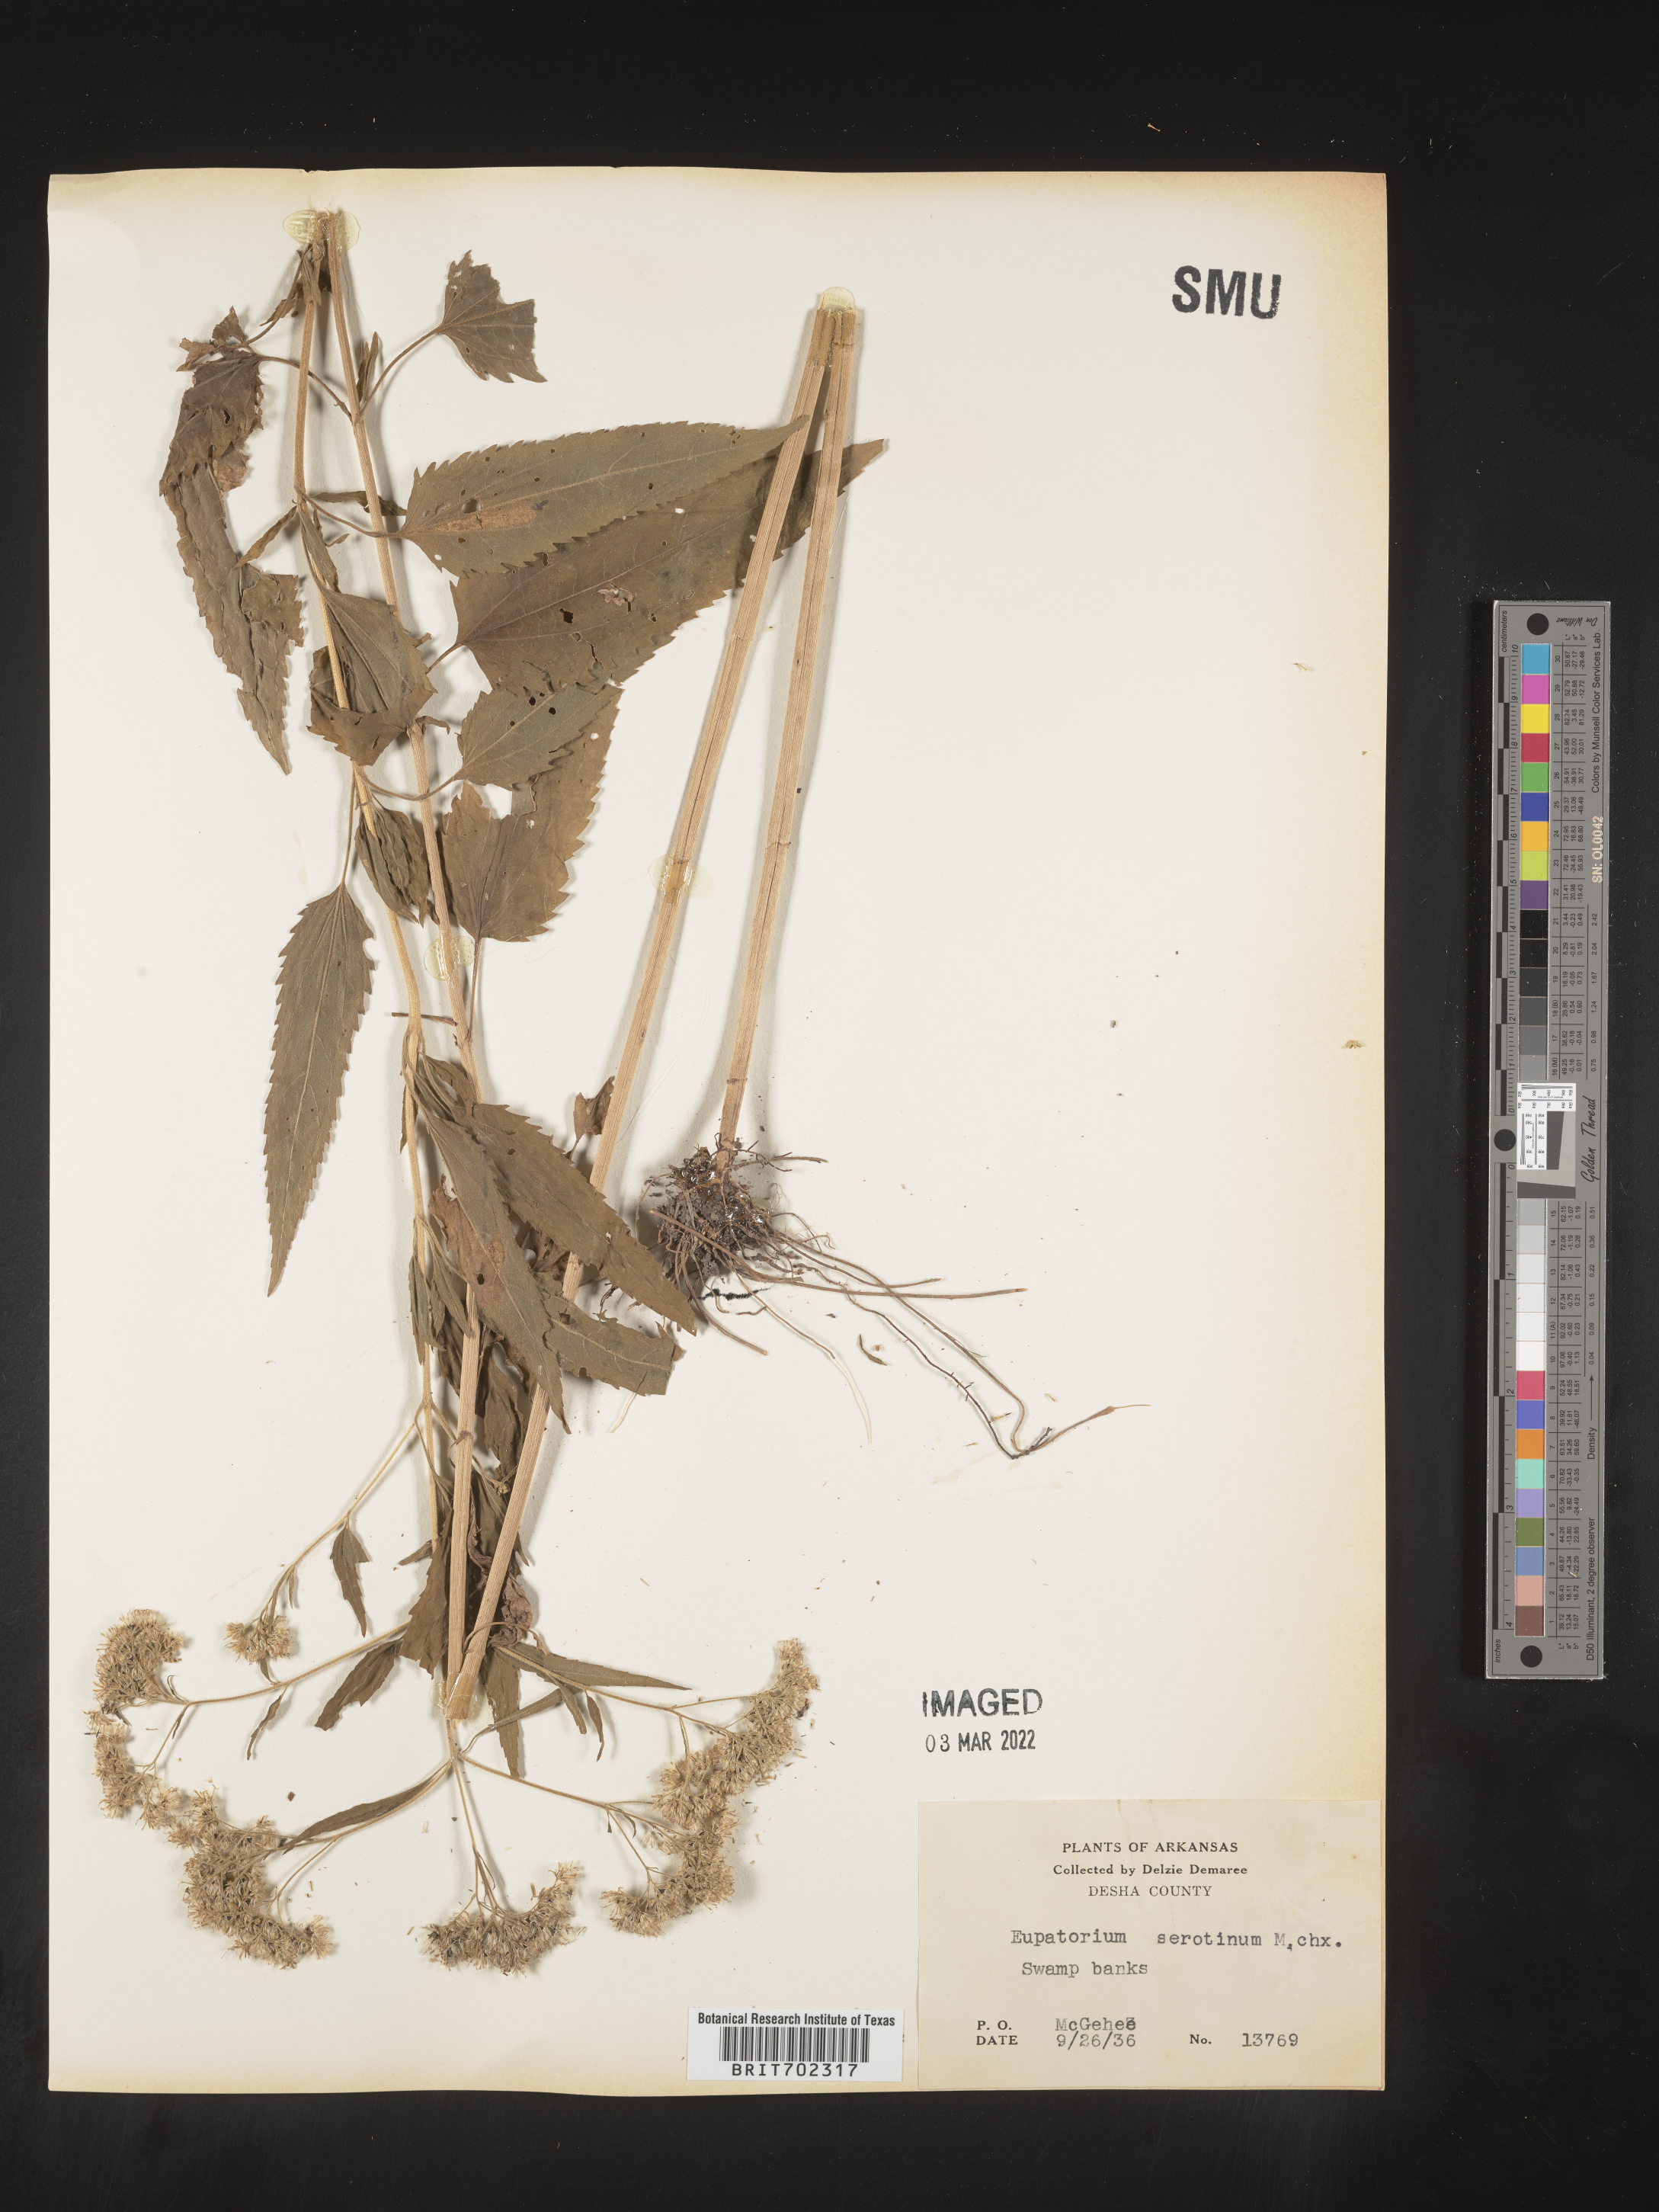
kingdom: Plantae
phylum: Tracheophyta
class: Magnoliopsida
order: Asterales
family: Asteraceae
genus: Eupatorium
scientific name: Eupatorium serotinum
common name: Late boneset
